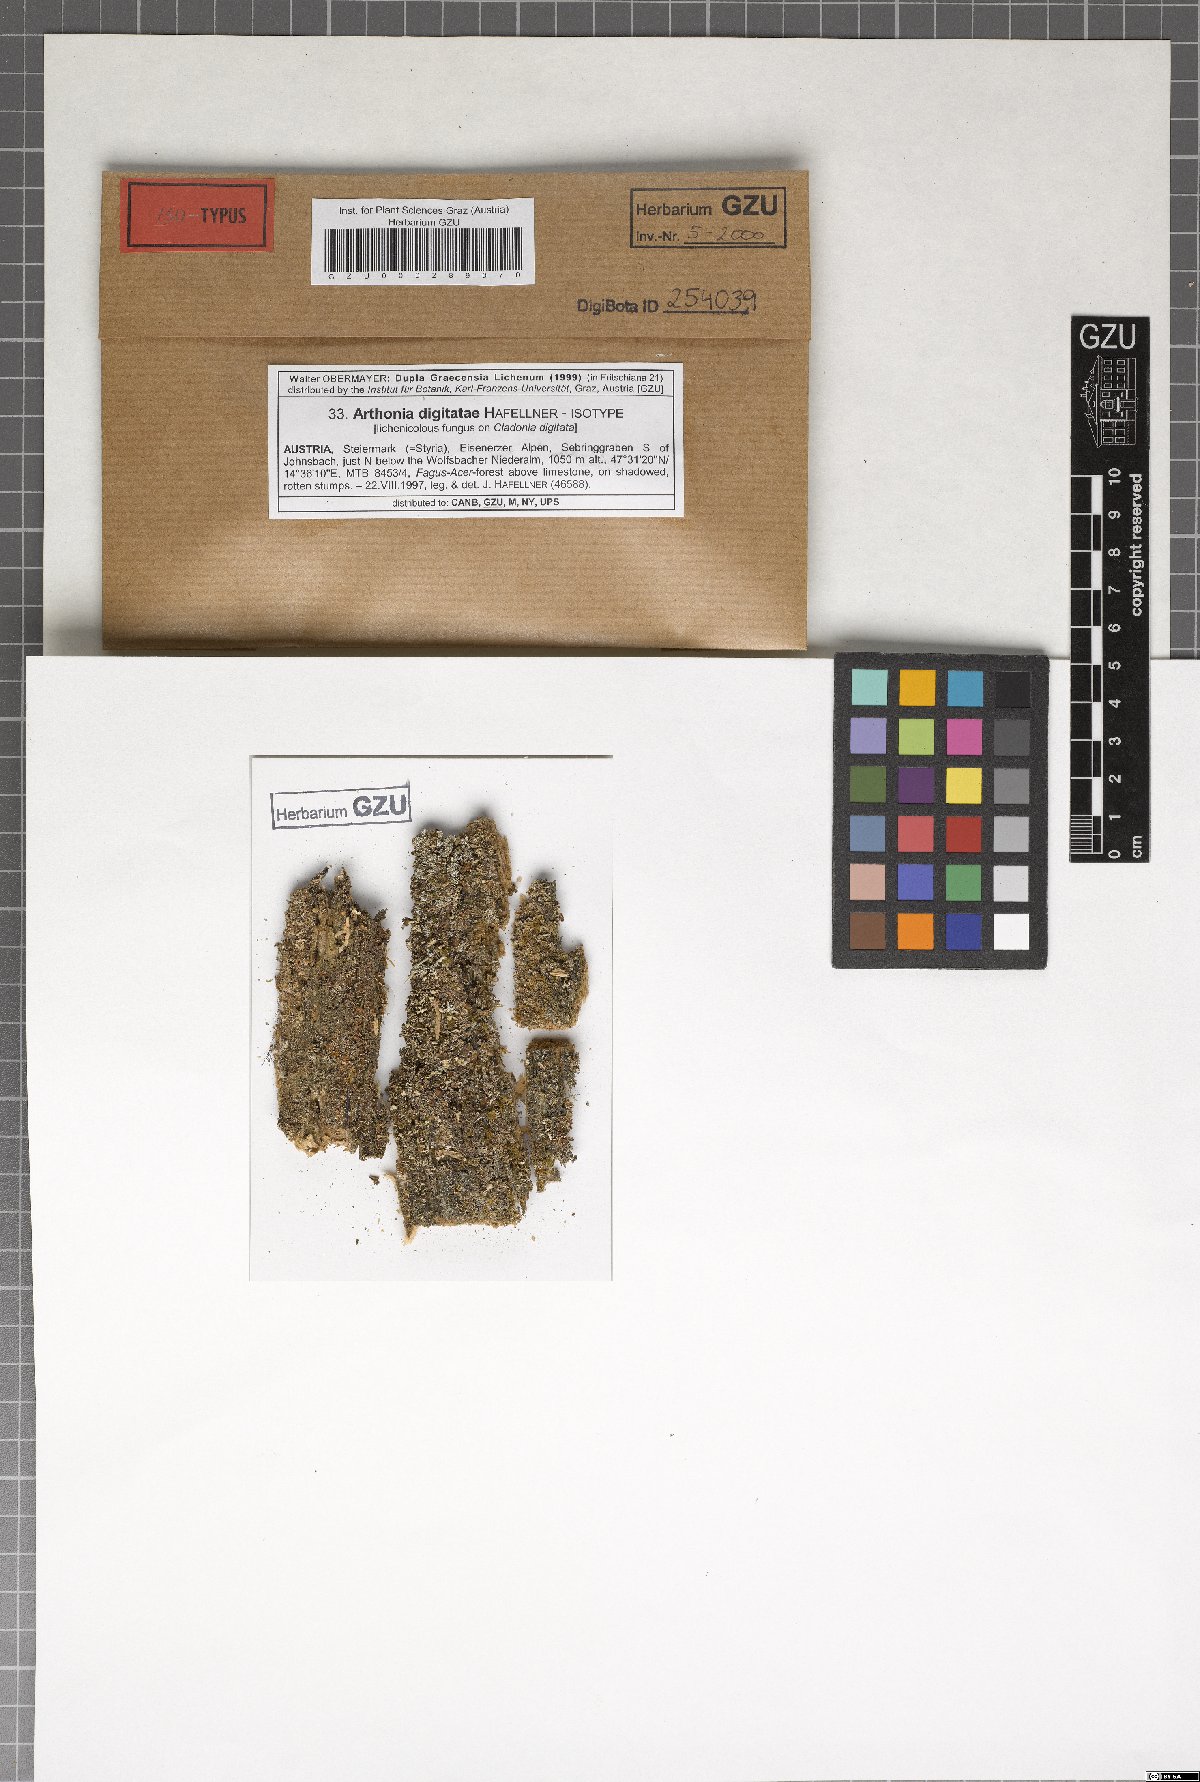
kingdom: Plantae
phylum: Marchantiophyta
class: Jungermanniopsida
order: Jungermanniales
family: Cephaloziaceae
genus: Odontoschisma
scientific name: Odontoschisma
